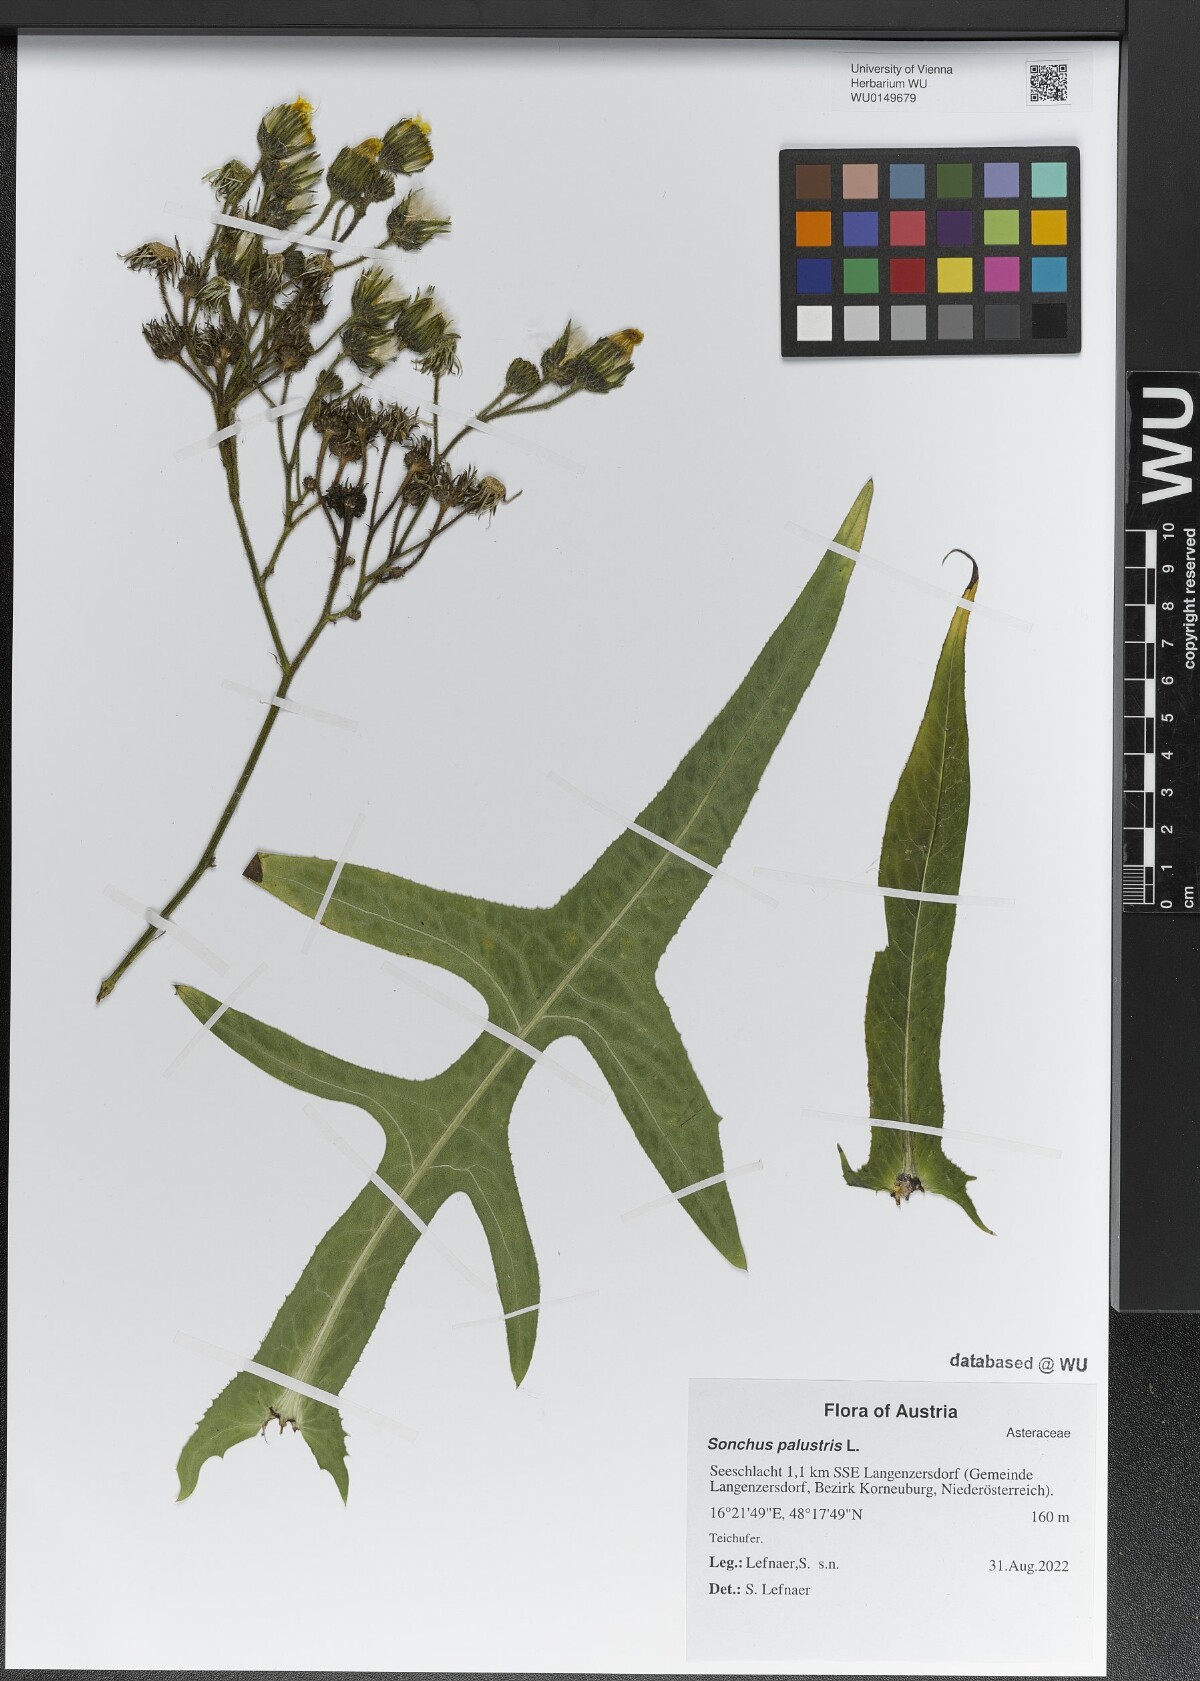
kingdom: Plantae
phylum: Tracheophyta
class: Magnoliopsida
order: Asterales
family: Asteraceae
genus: Sonchus
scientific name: Sonchus palustris
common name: Marsh sow-thistle
